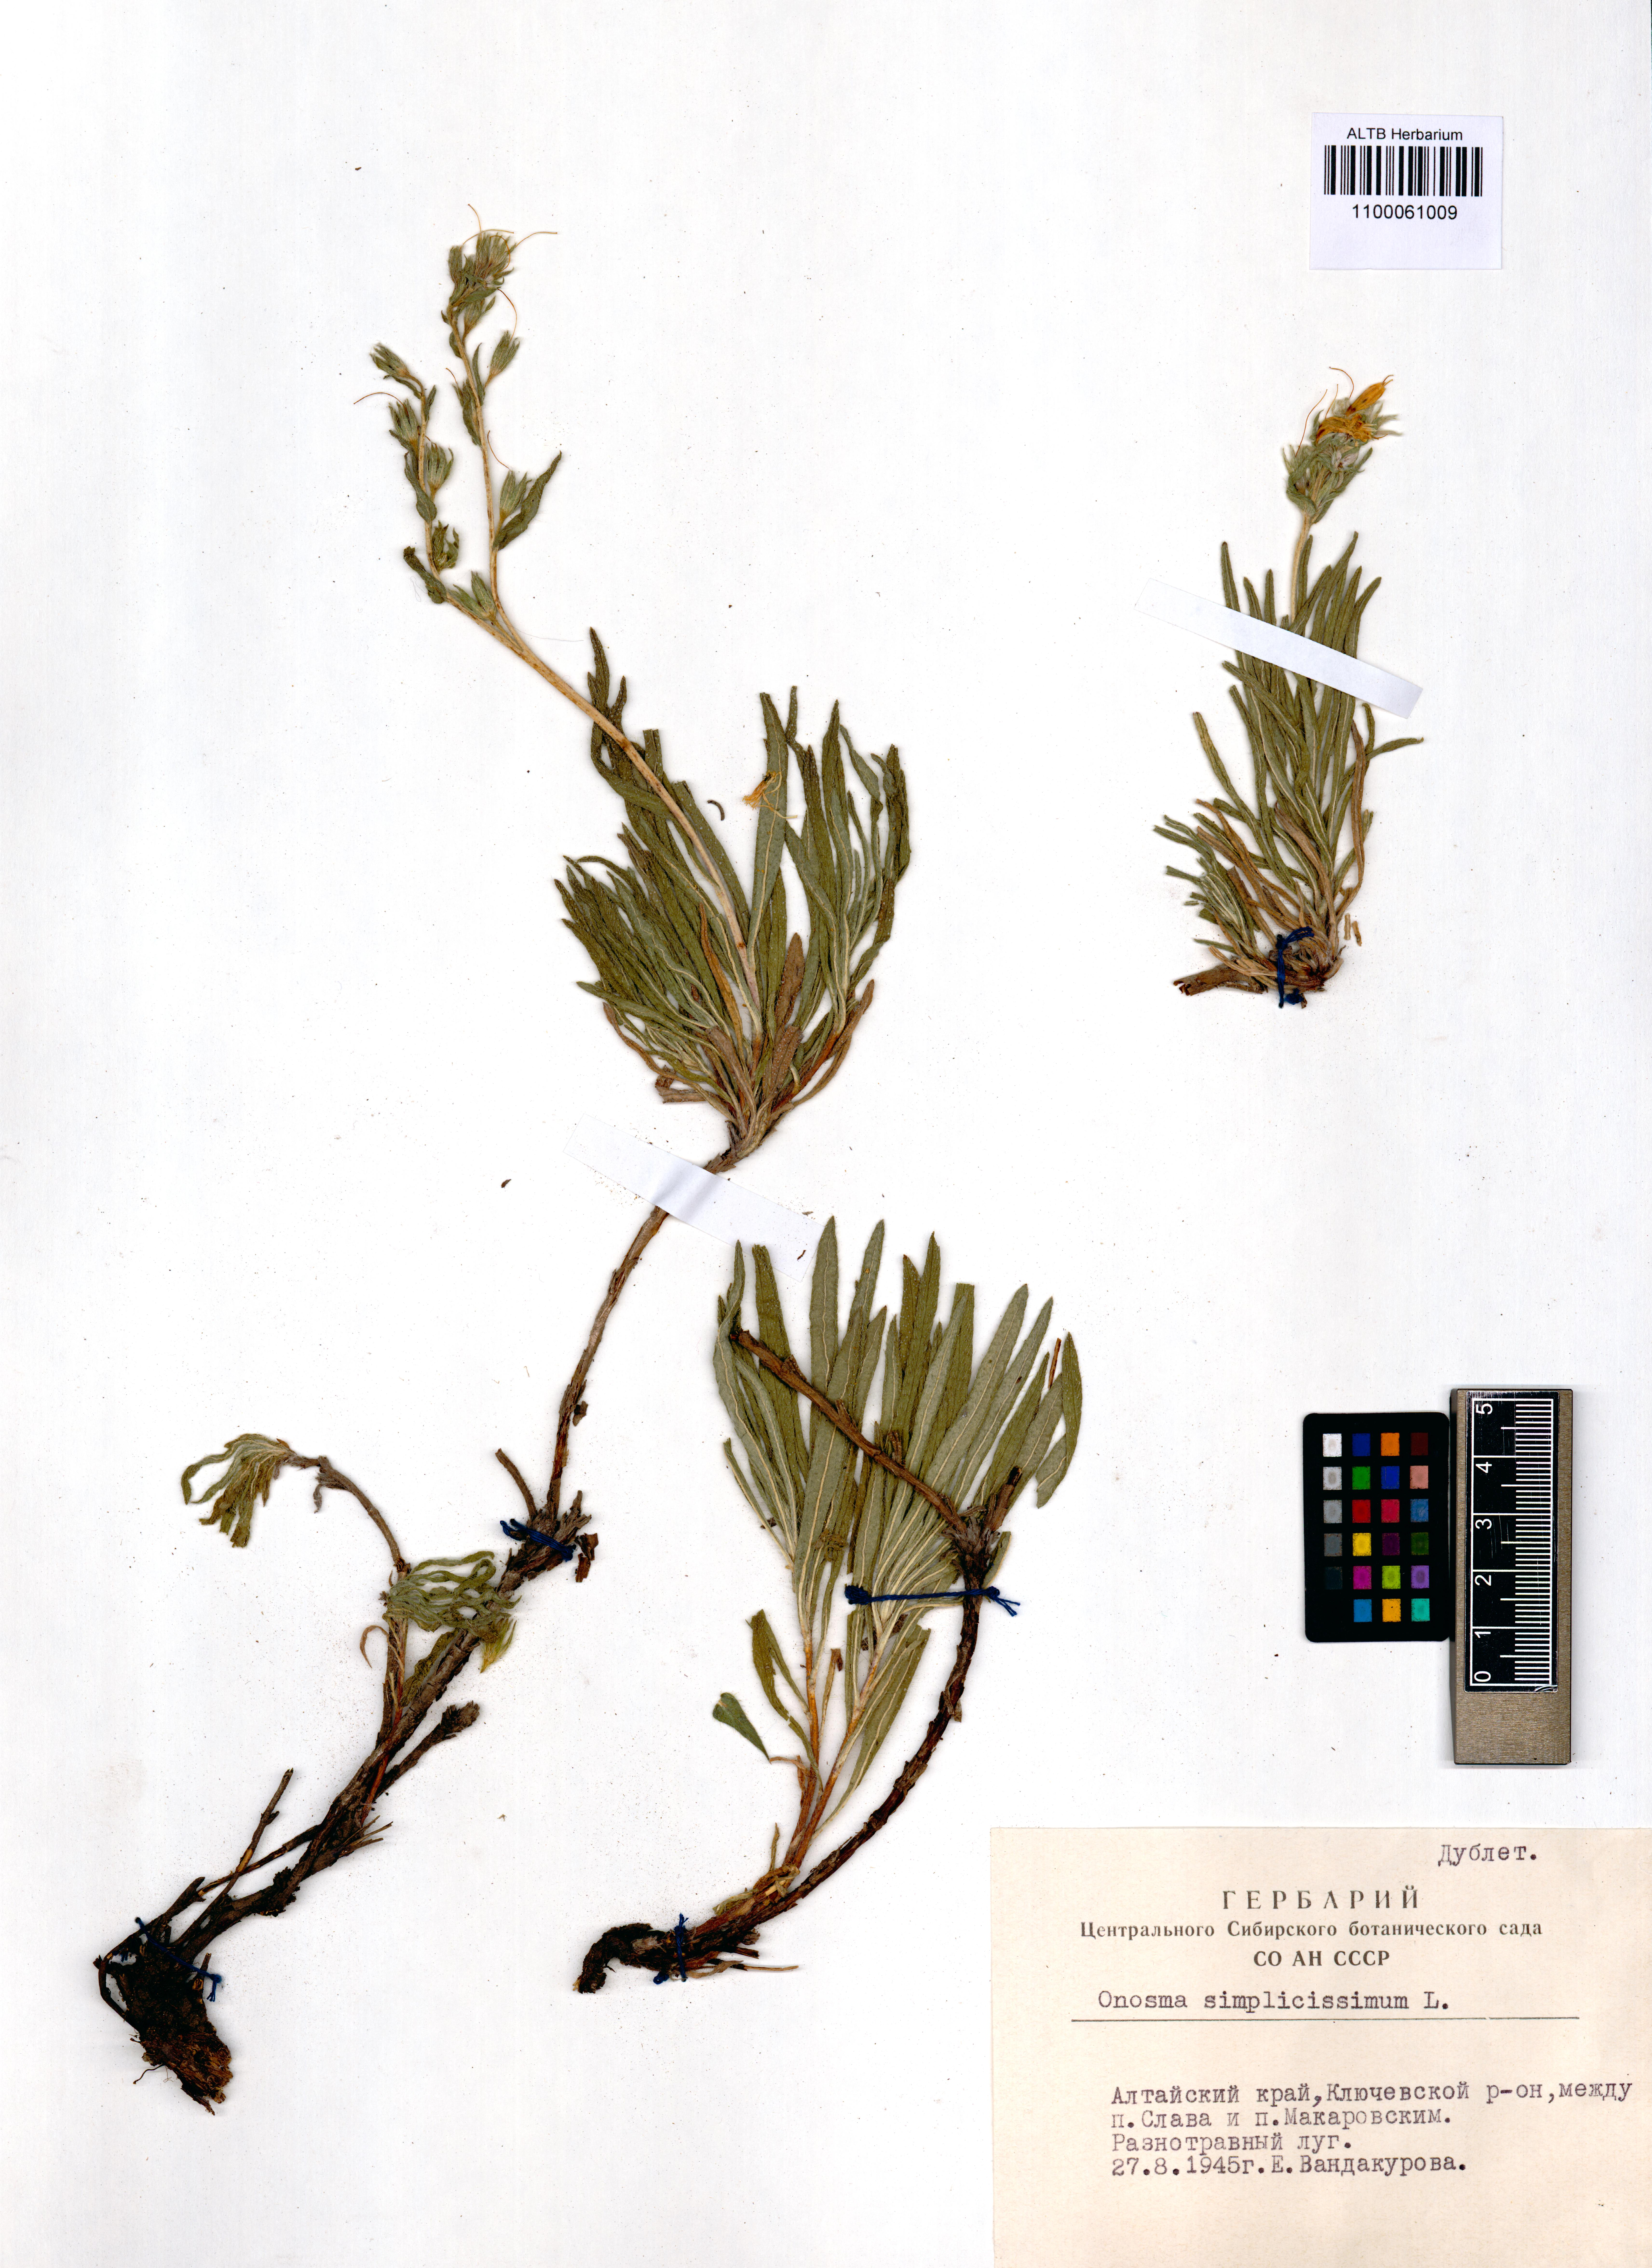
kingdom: Plantae
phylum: Tracheophyta
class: Magnoliopsida
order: Boraginales
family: Boraginaceae
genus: Onosma
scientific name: Onosma simplicissima
